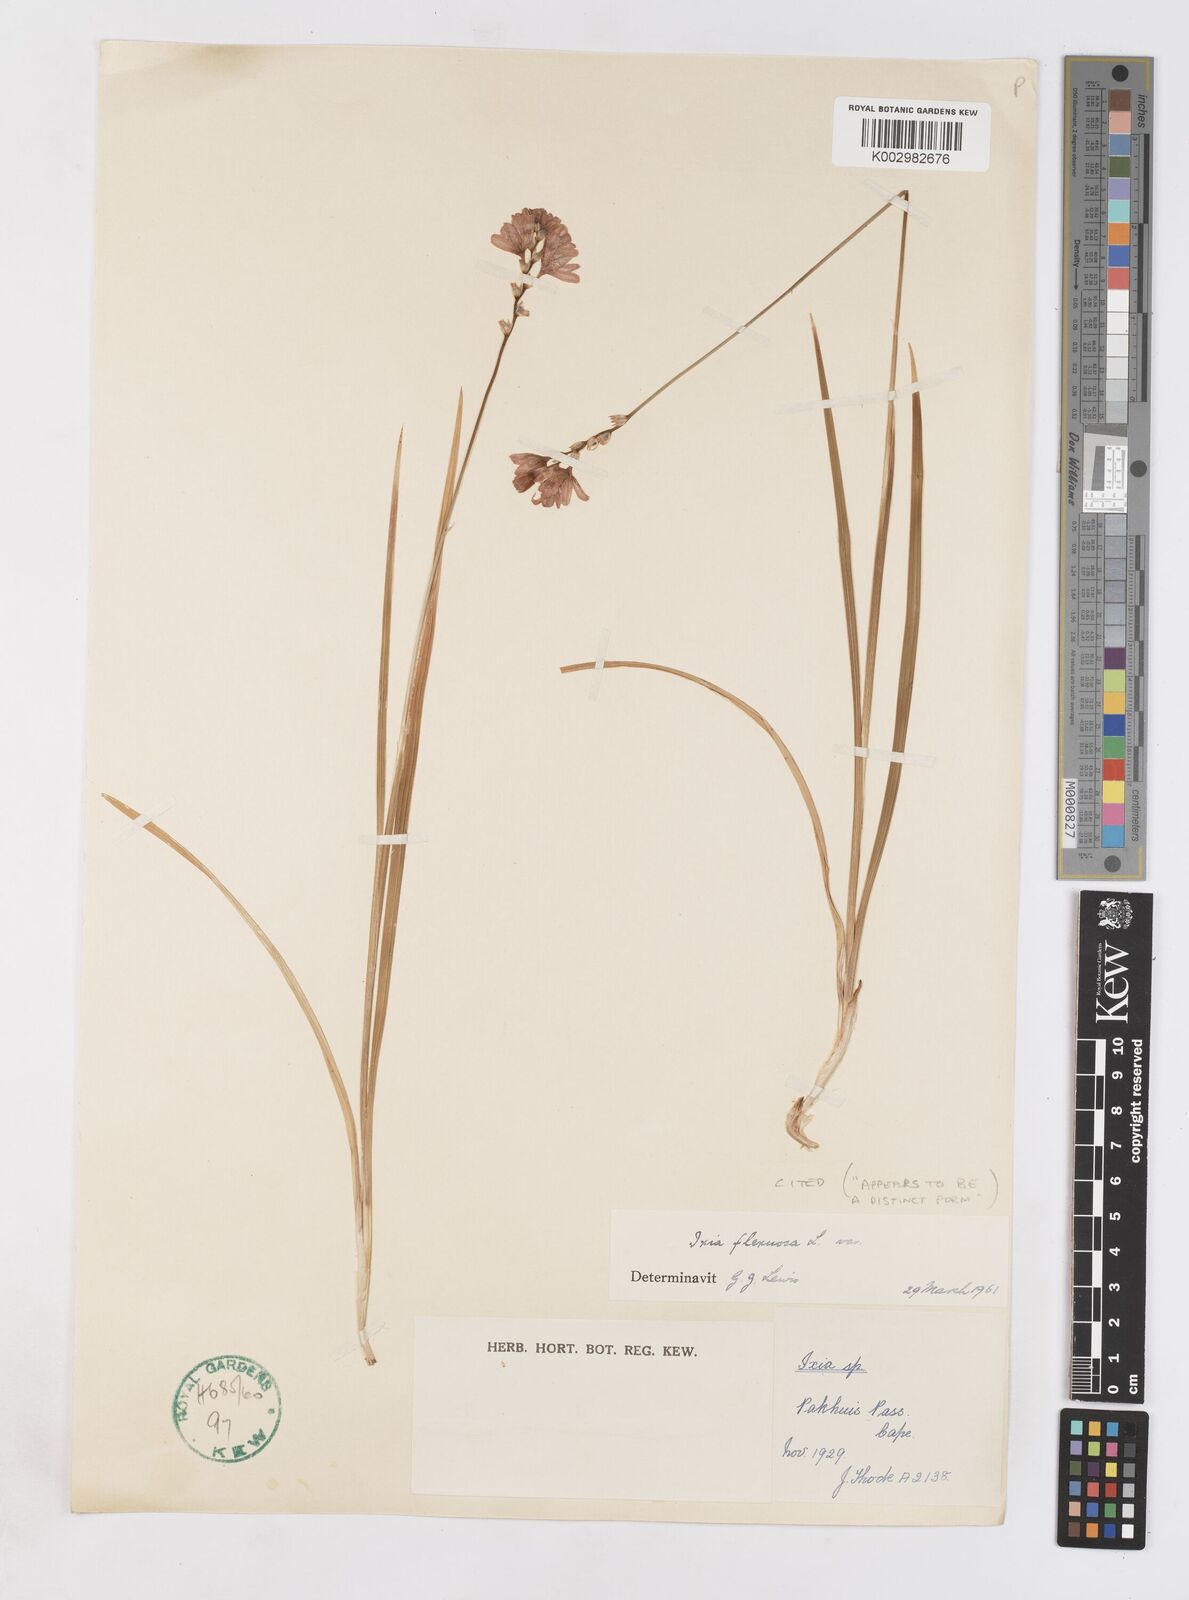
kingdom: Plantae
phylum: Tracheophyta
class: Liliopsida
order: Asparagales
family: Iridaceae
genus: Ixia
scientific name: Ixia flexuosa
